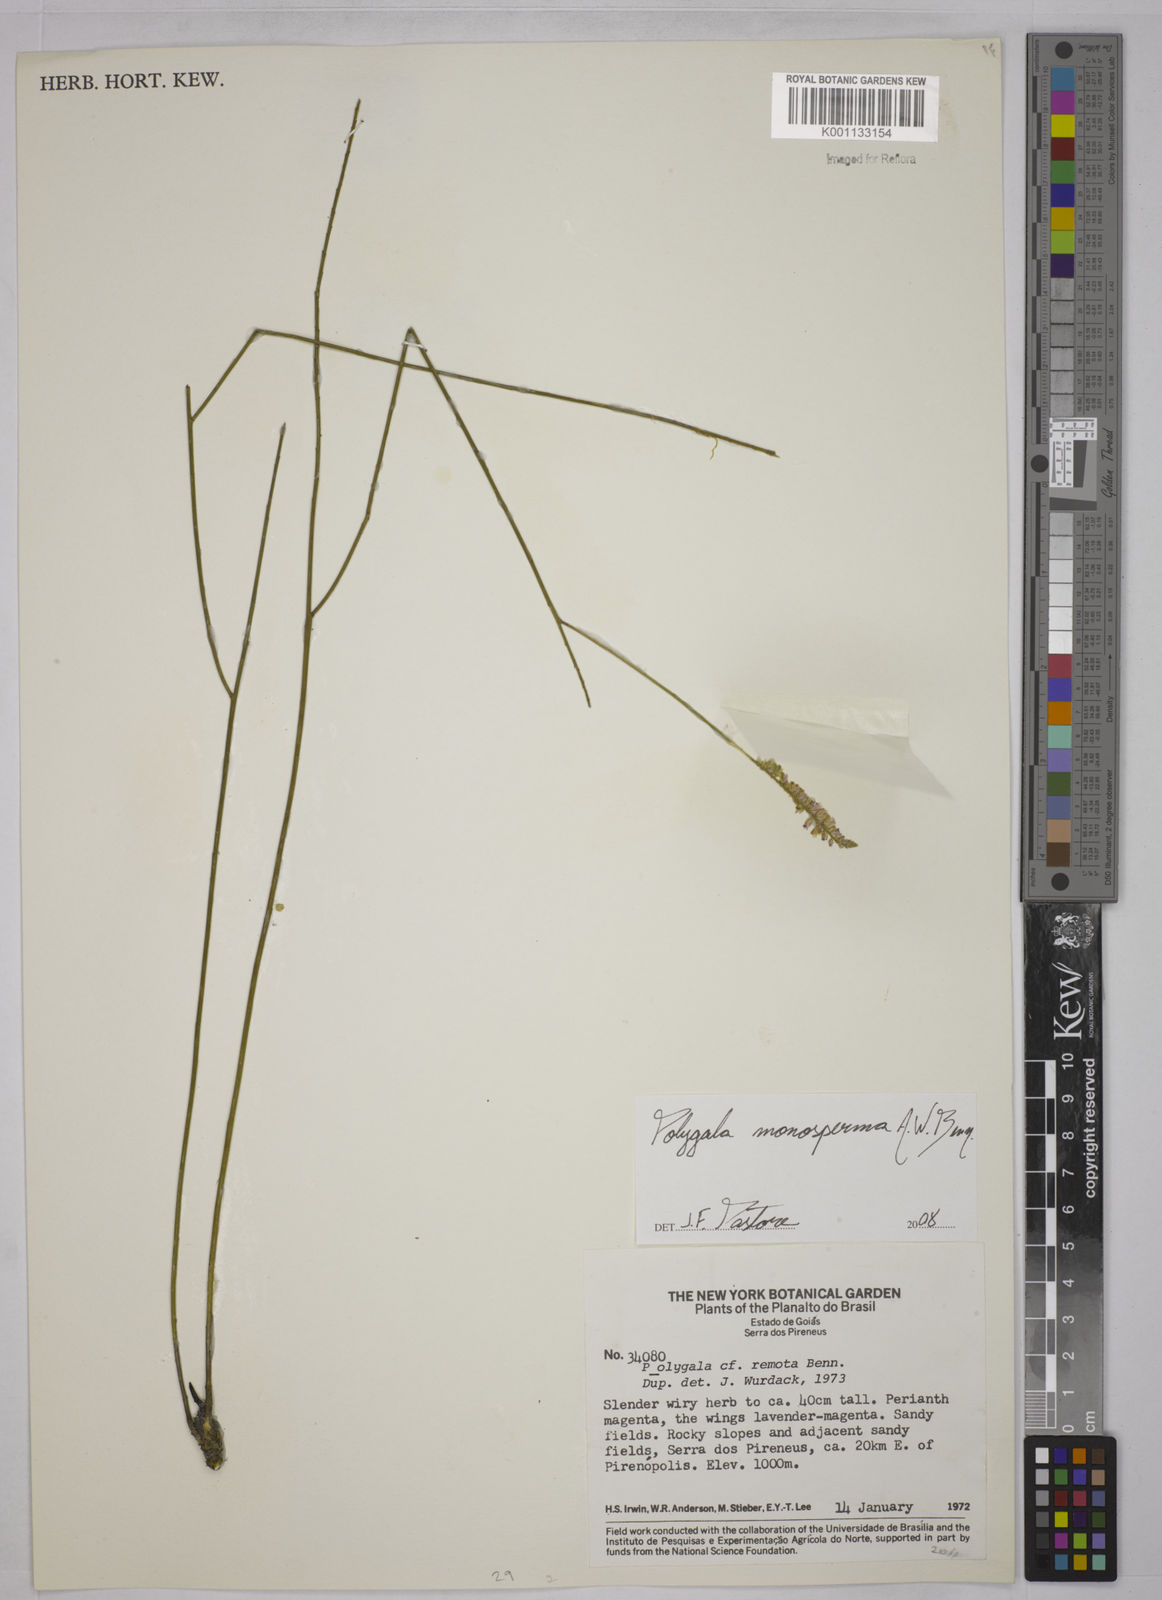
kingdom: Plantae
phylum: Tracheophyta
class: Magnoliopsida
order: Fabales
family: Polygalaceae
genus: Polygala
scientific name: Polygala monosperma
